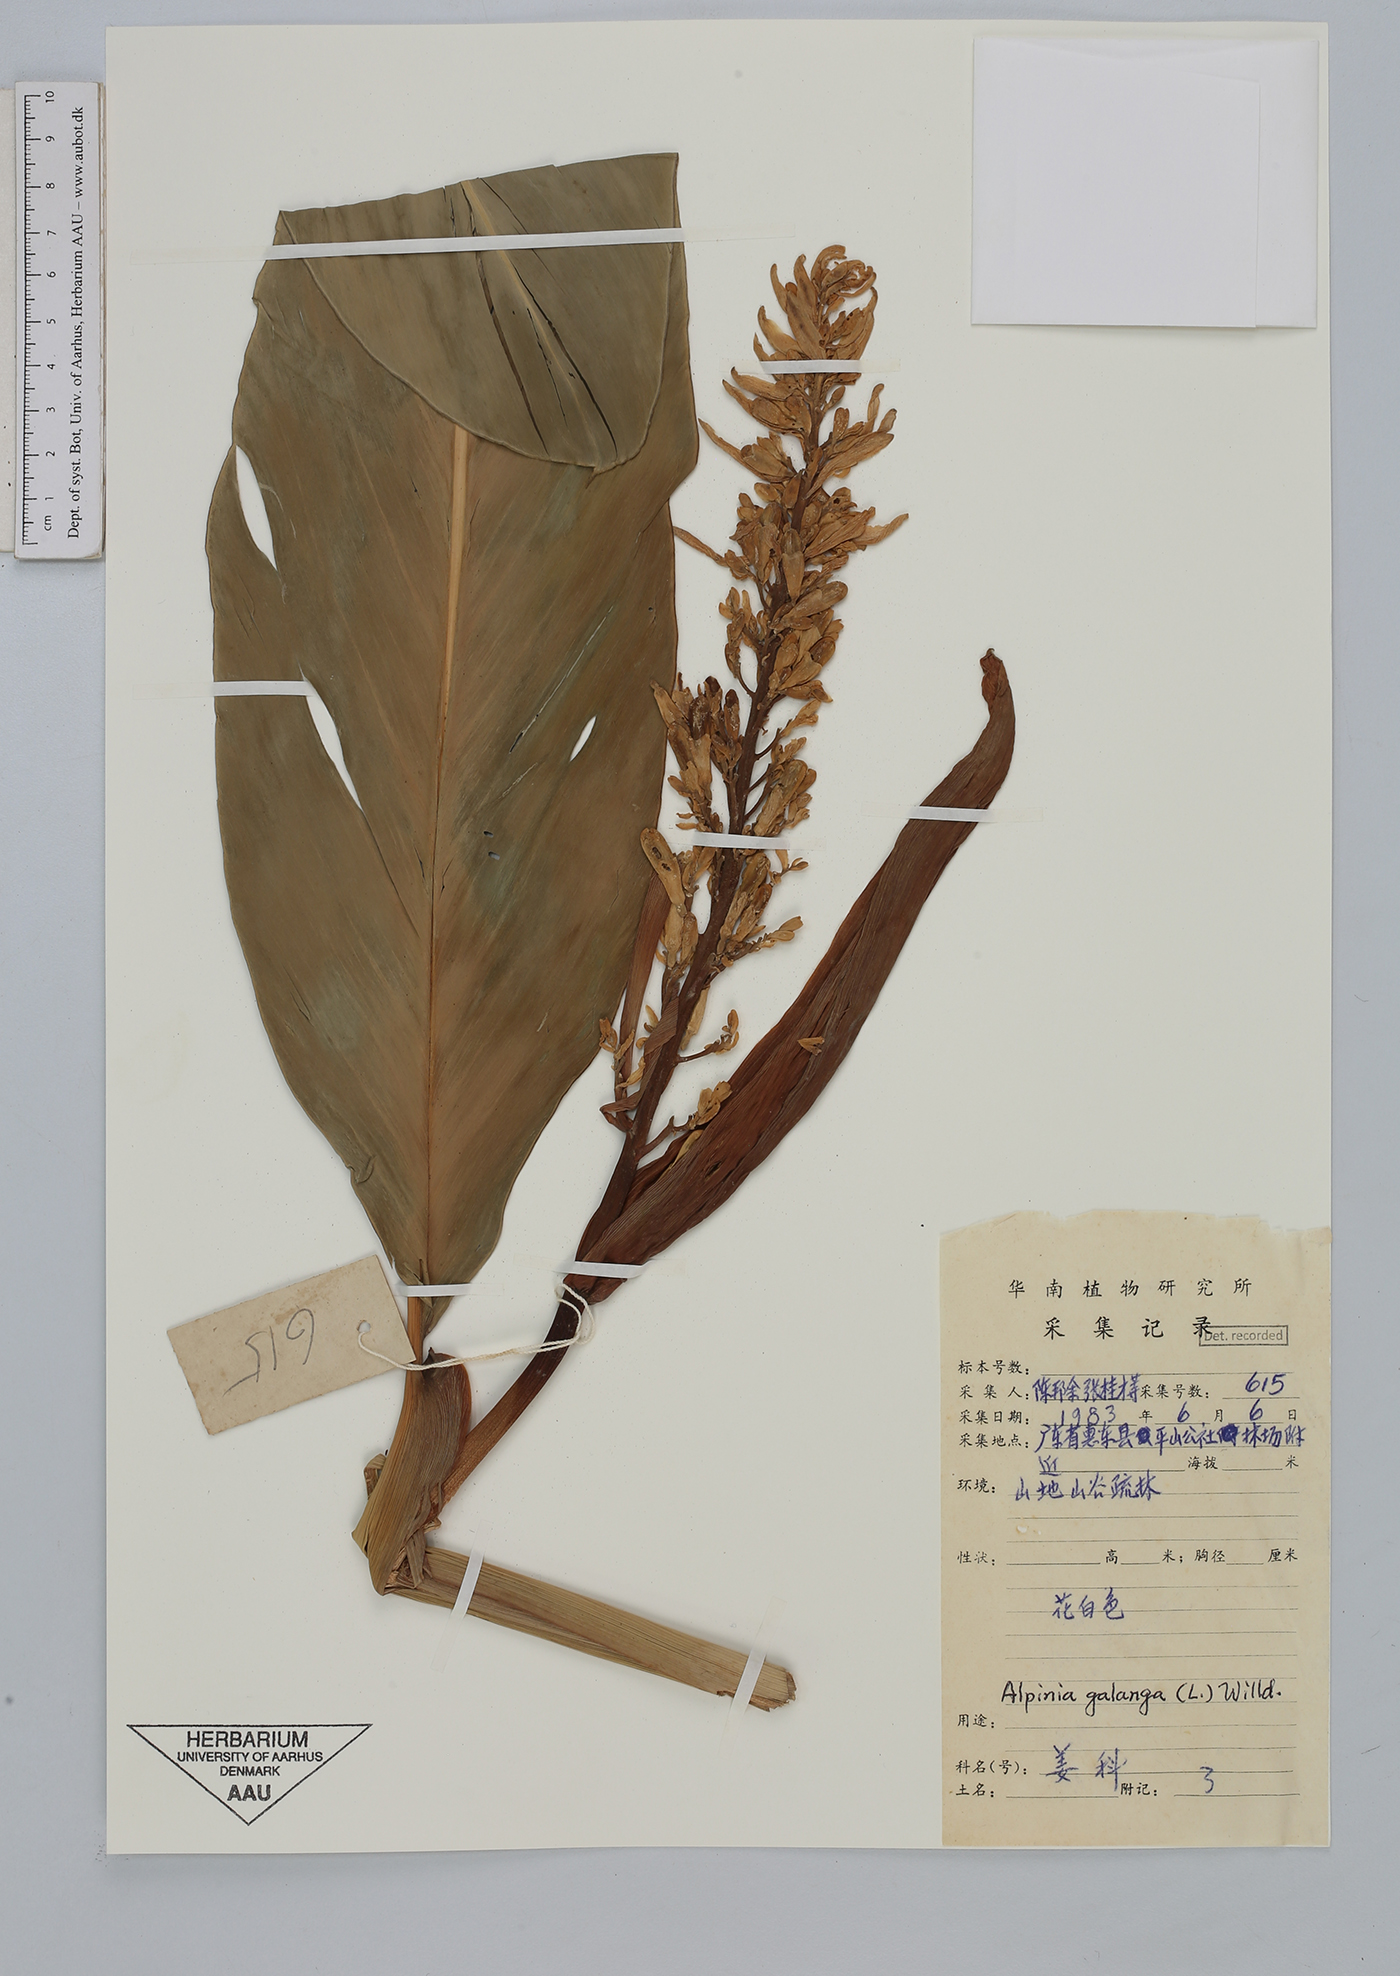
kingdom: Plantae
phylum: Tracheophyta
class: Liliopsida
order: Zingiberales
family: Zingiberaceae
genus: Alpinia
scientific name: Alpinia galanga
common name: Siamese-ginger
